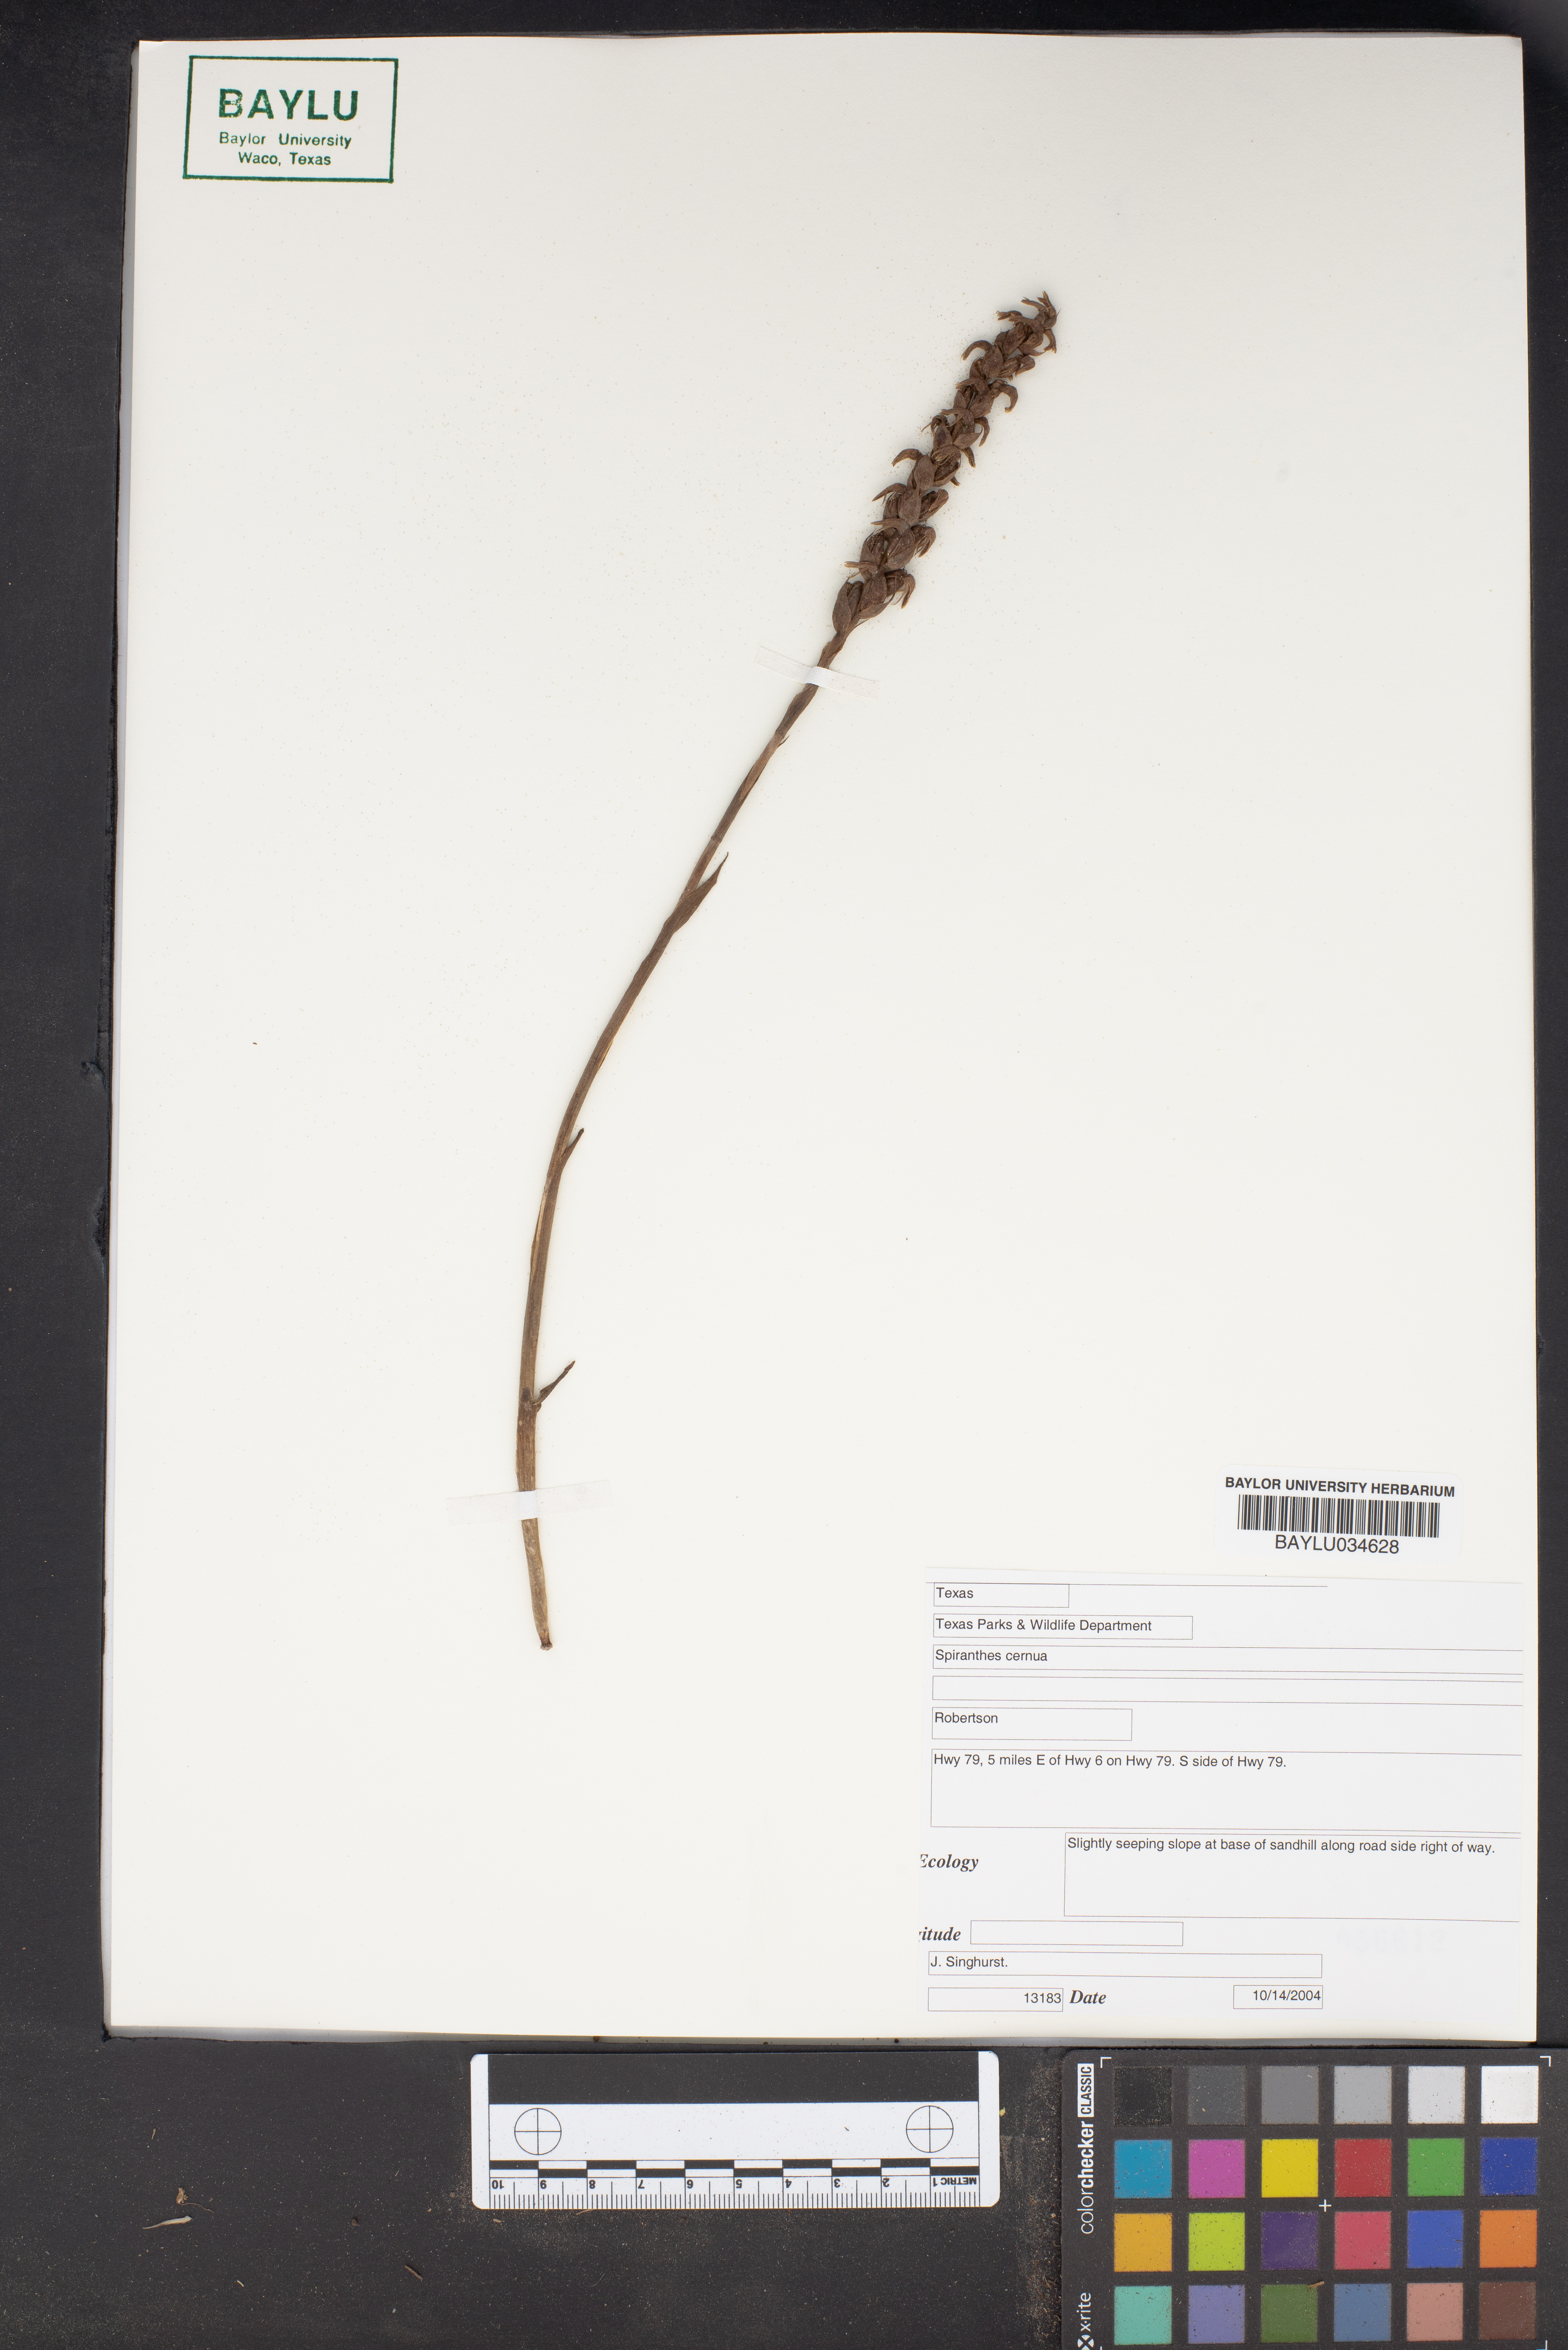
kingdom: Plantae
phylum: Tracheophyta
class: Liliopsida
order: Asparagales
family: Orchidaceae
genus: Spiranthes
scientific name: Spiranthes cernua
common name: Dropping ladies'-tresses
